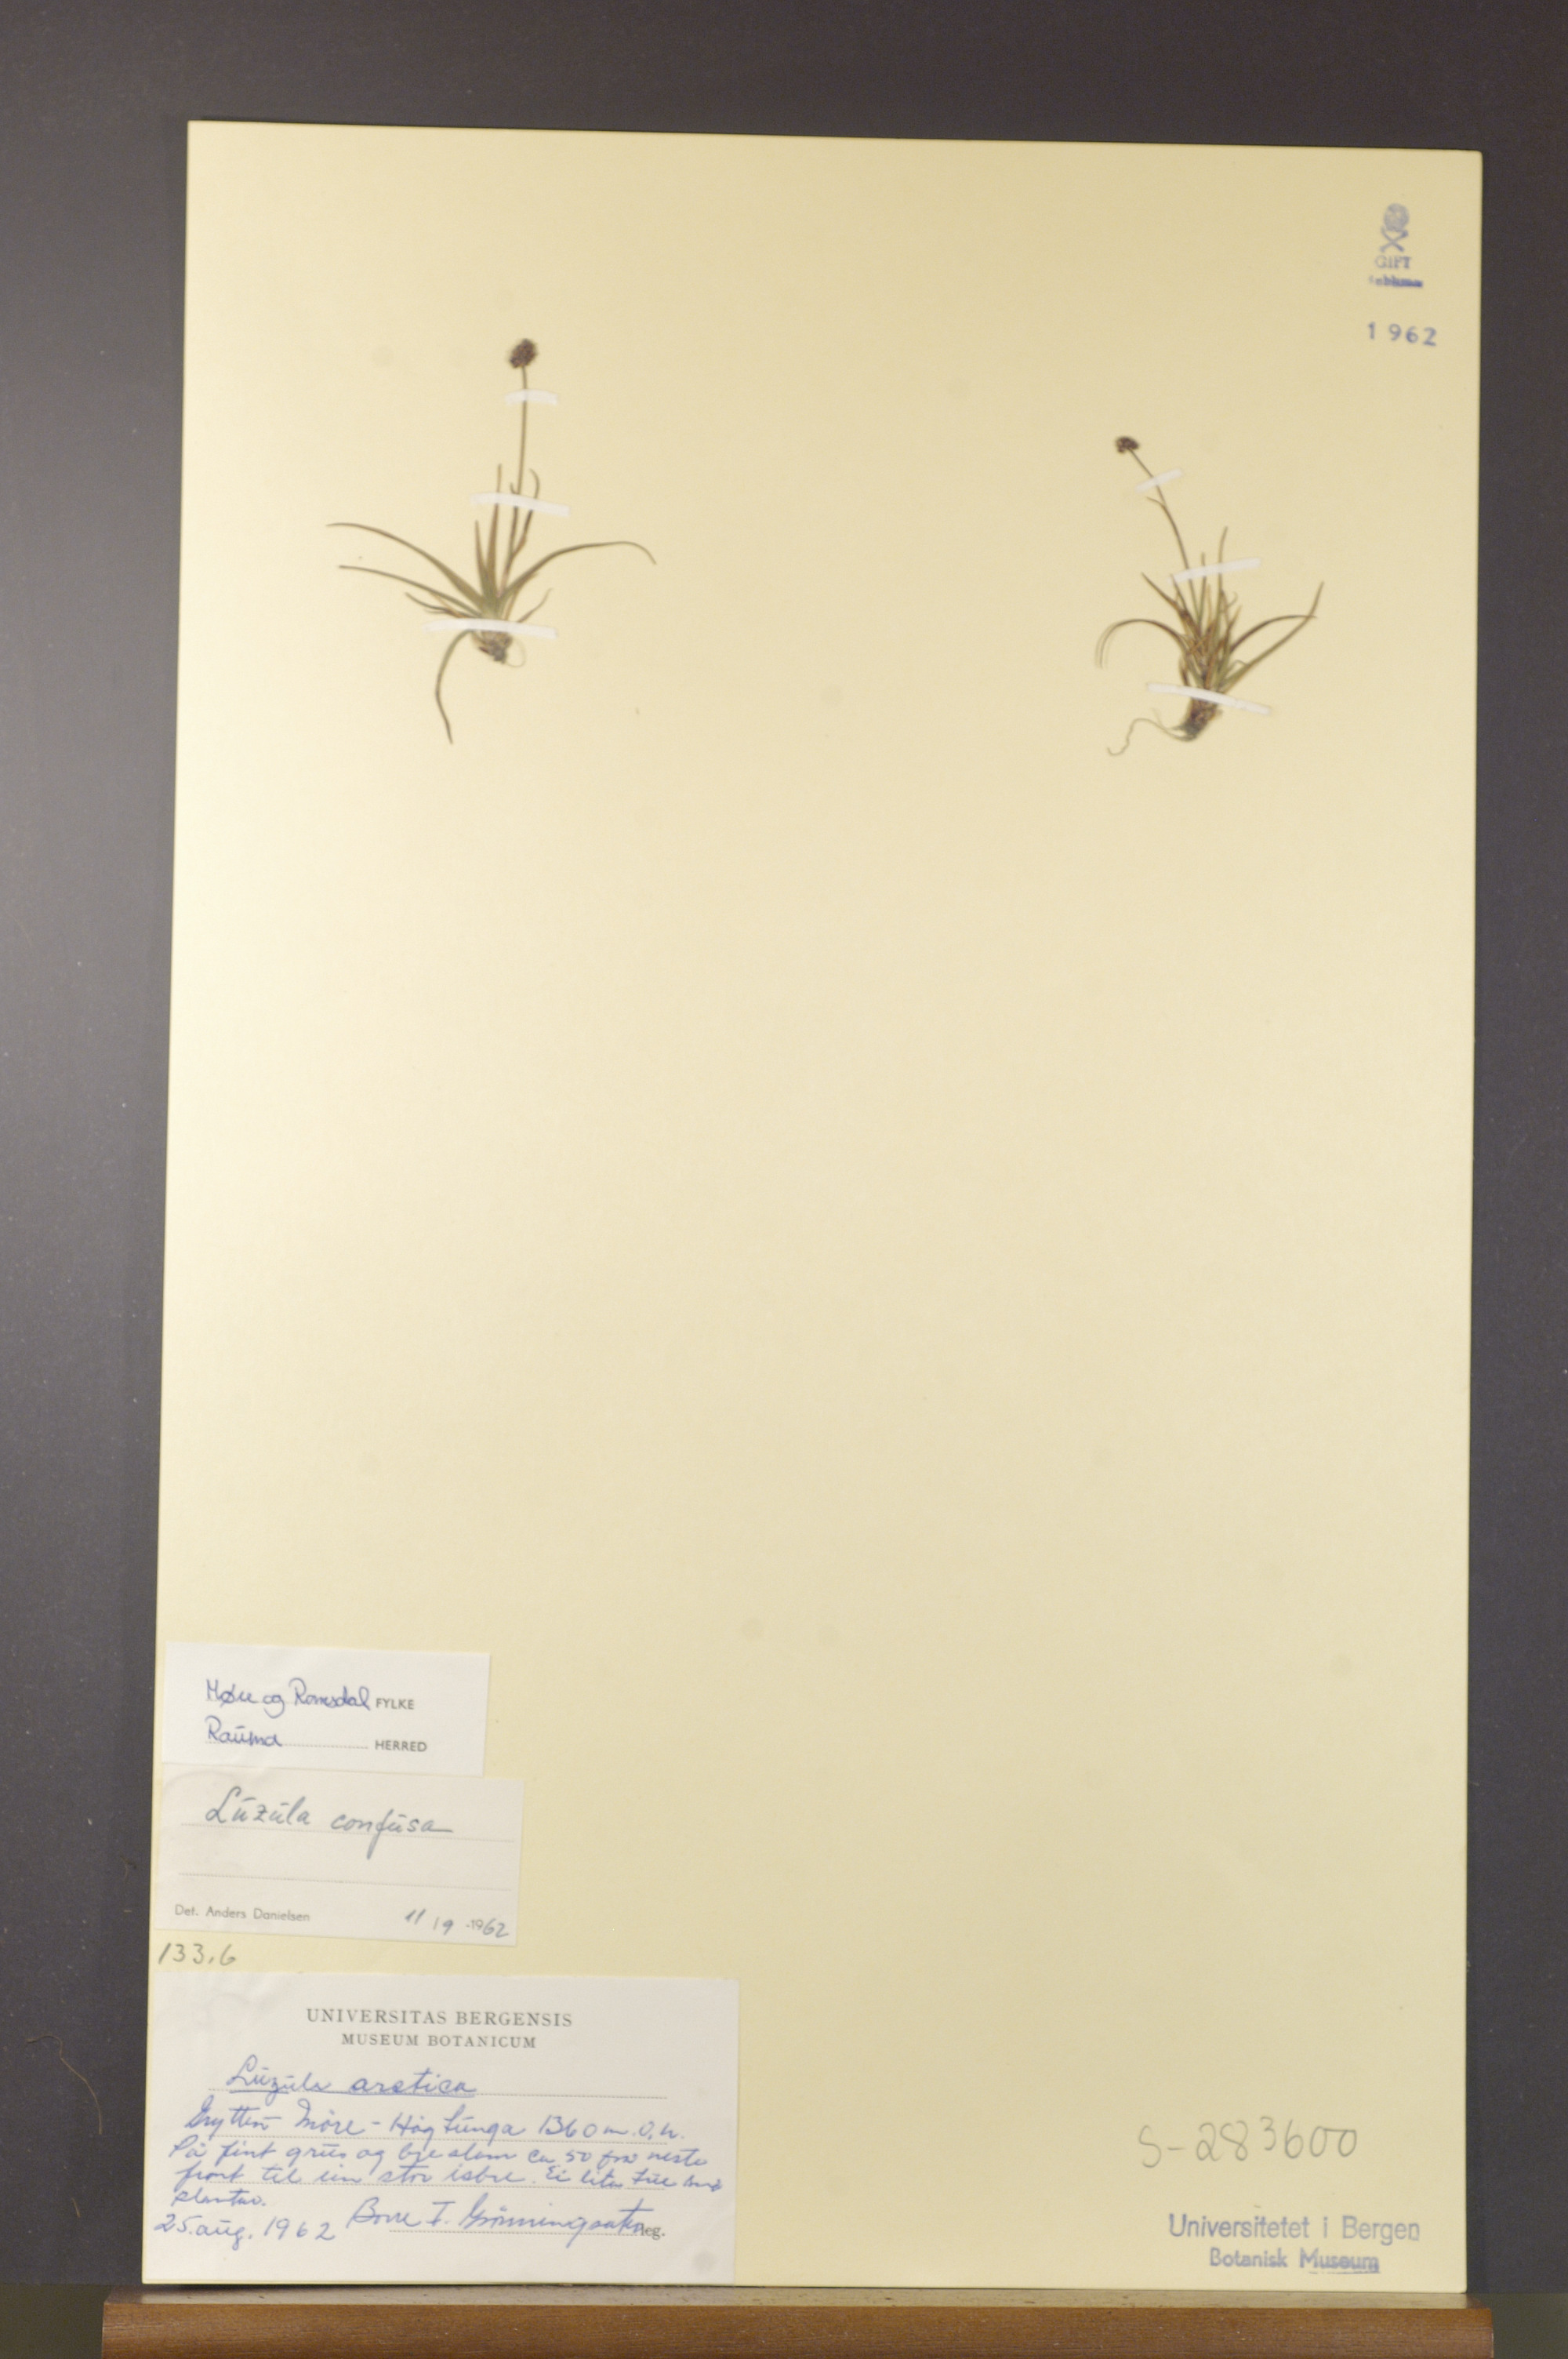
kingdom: Plantae
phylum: Tracheophyta
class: Liliopsida
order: Poales
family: Juncaceae
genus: Luzula
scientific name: Luzula confusa
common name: Northern wood rush
